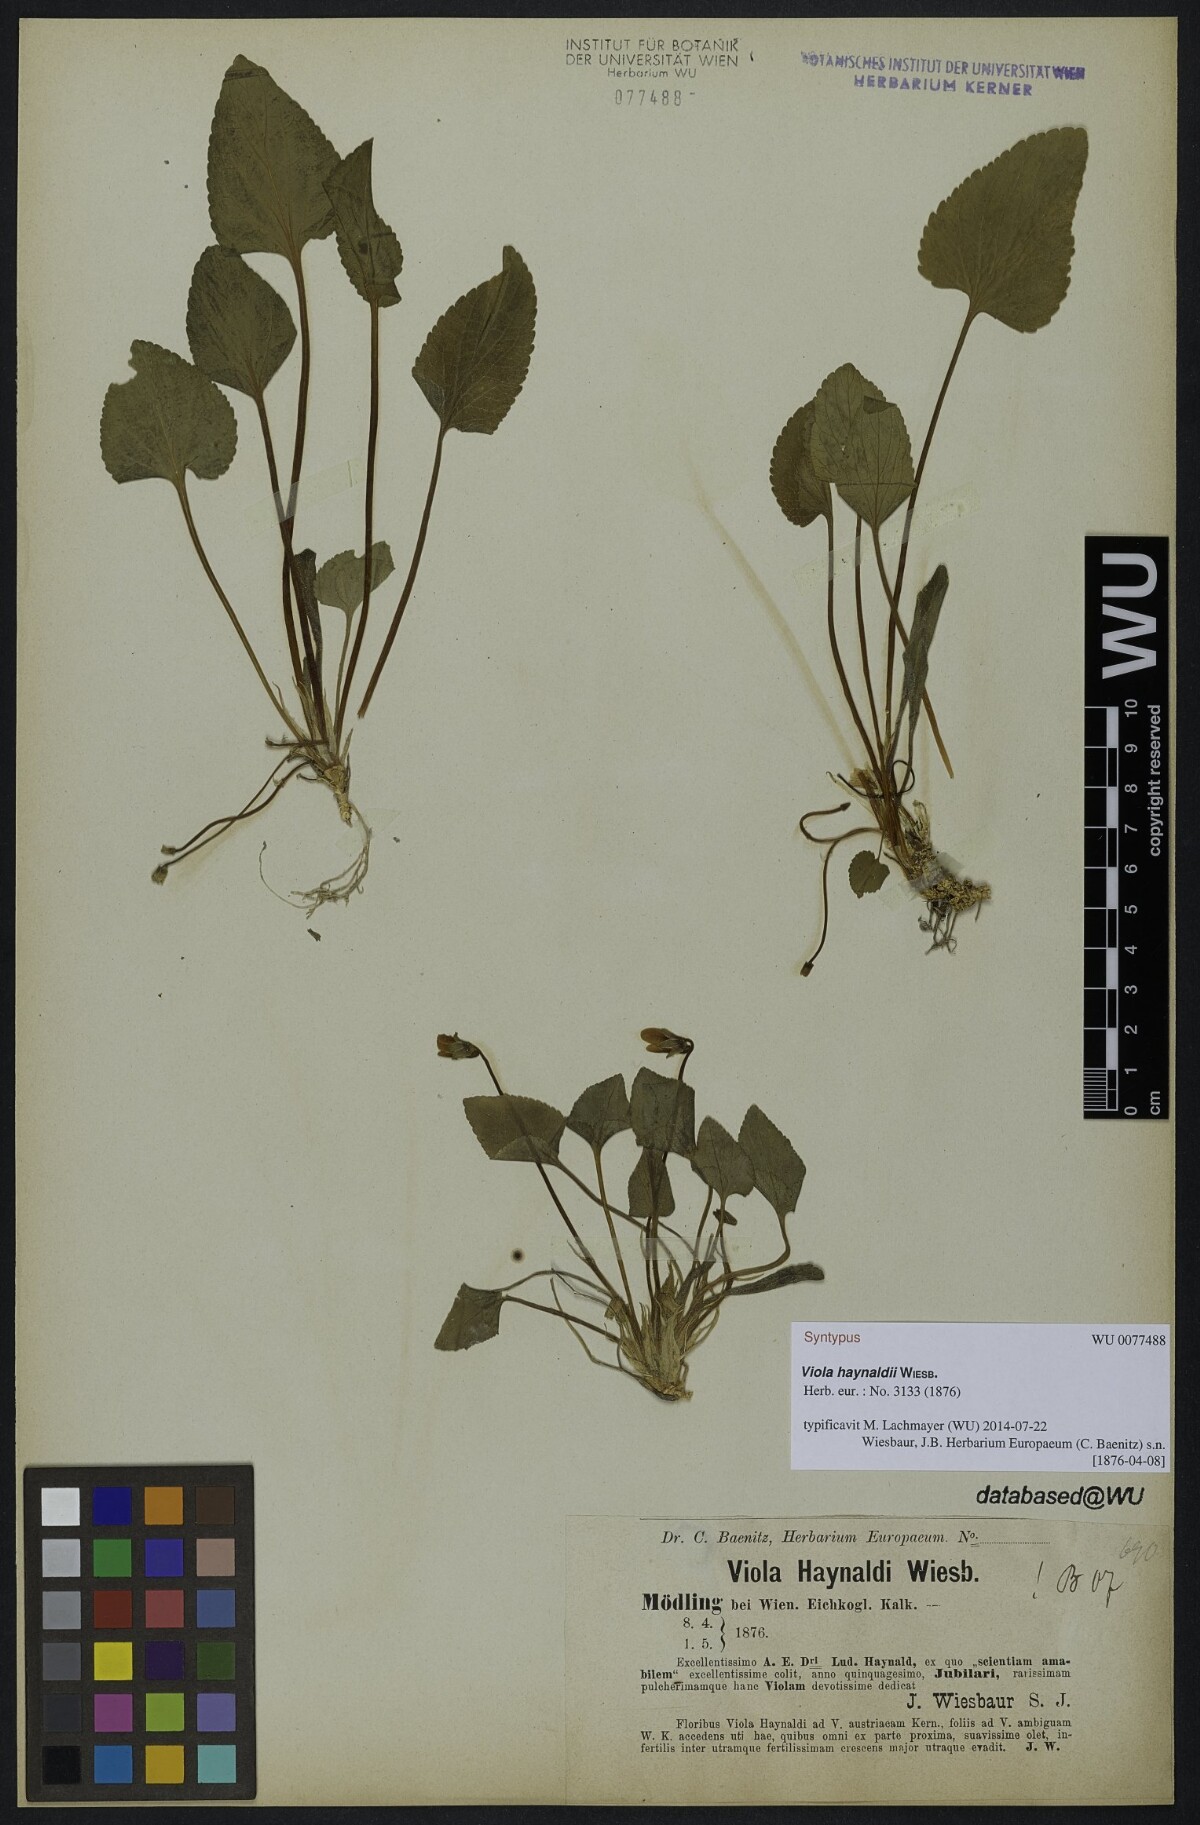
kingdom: Plantae
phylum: Tracheophyta
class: Magnoliopsida
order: Malpighiales
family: Violaceae
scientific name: Violaceae
